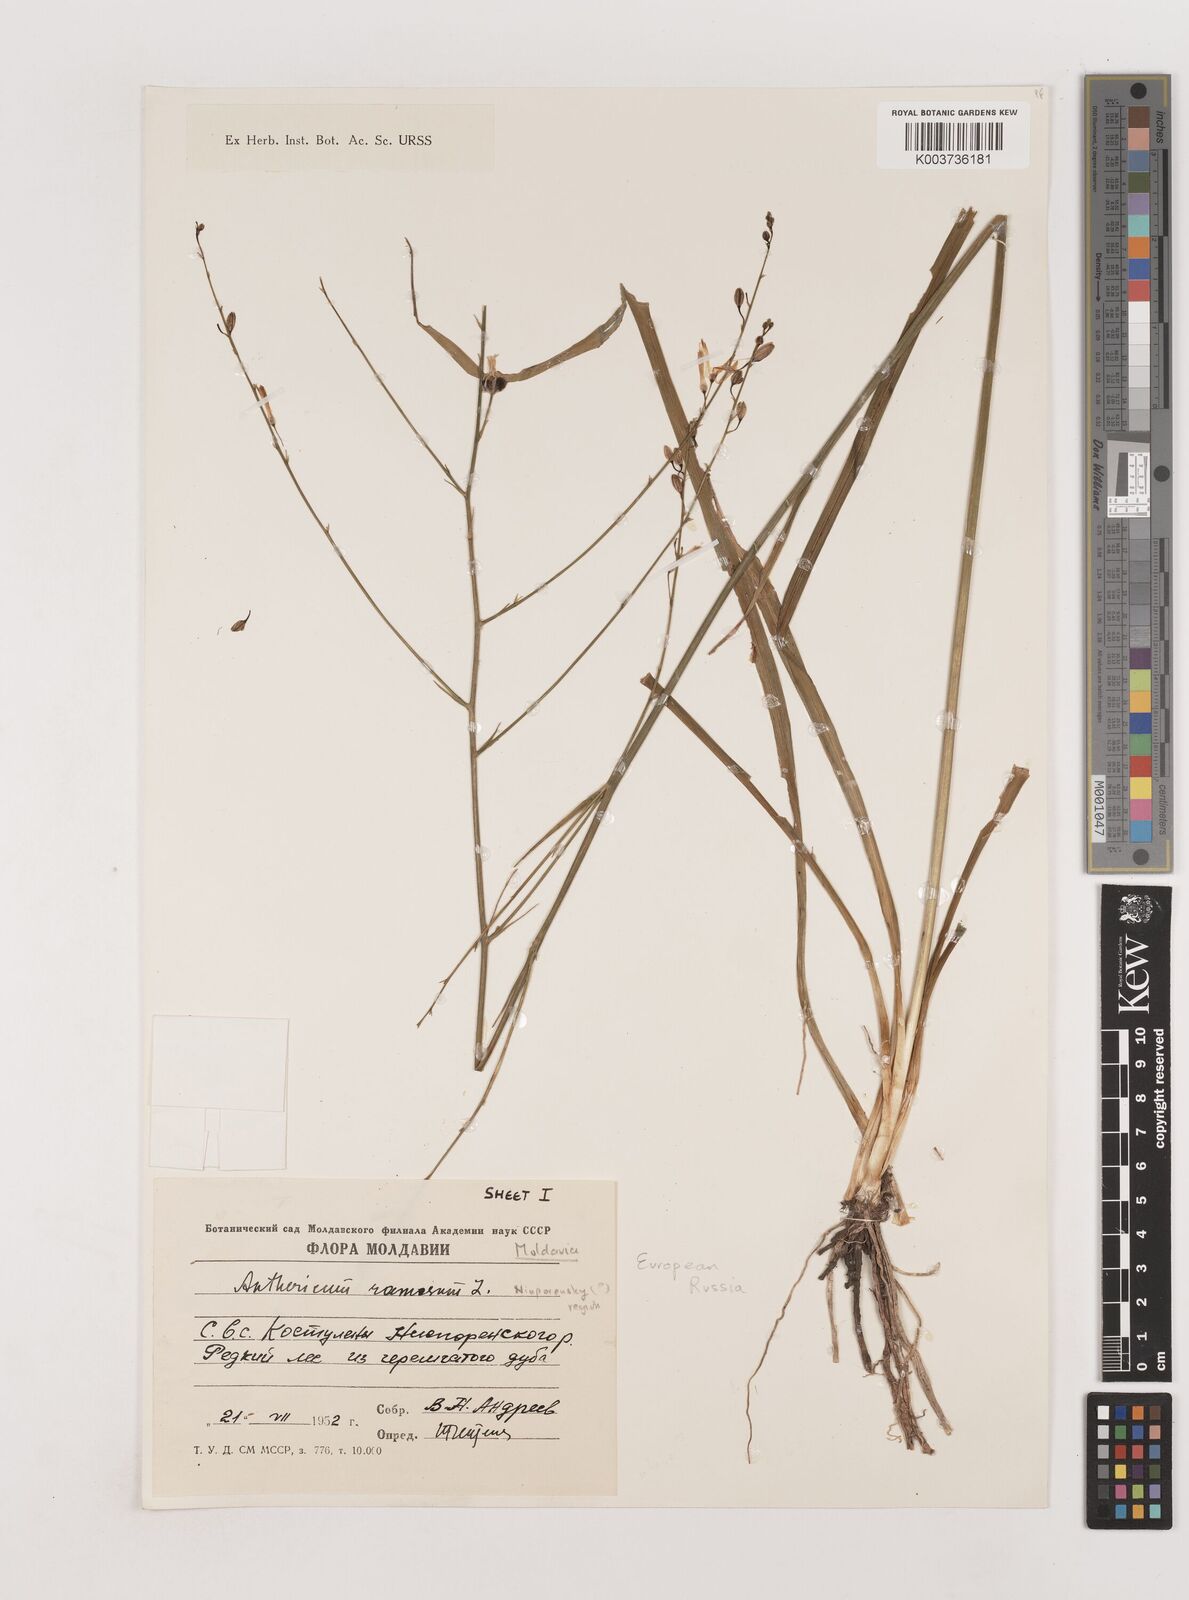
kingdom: Plantae
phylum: Tracheophyta
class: Liliopsida
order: Asparagales
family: Asparagaceae
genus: Anthericum
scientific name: Anthericum
